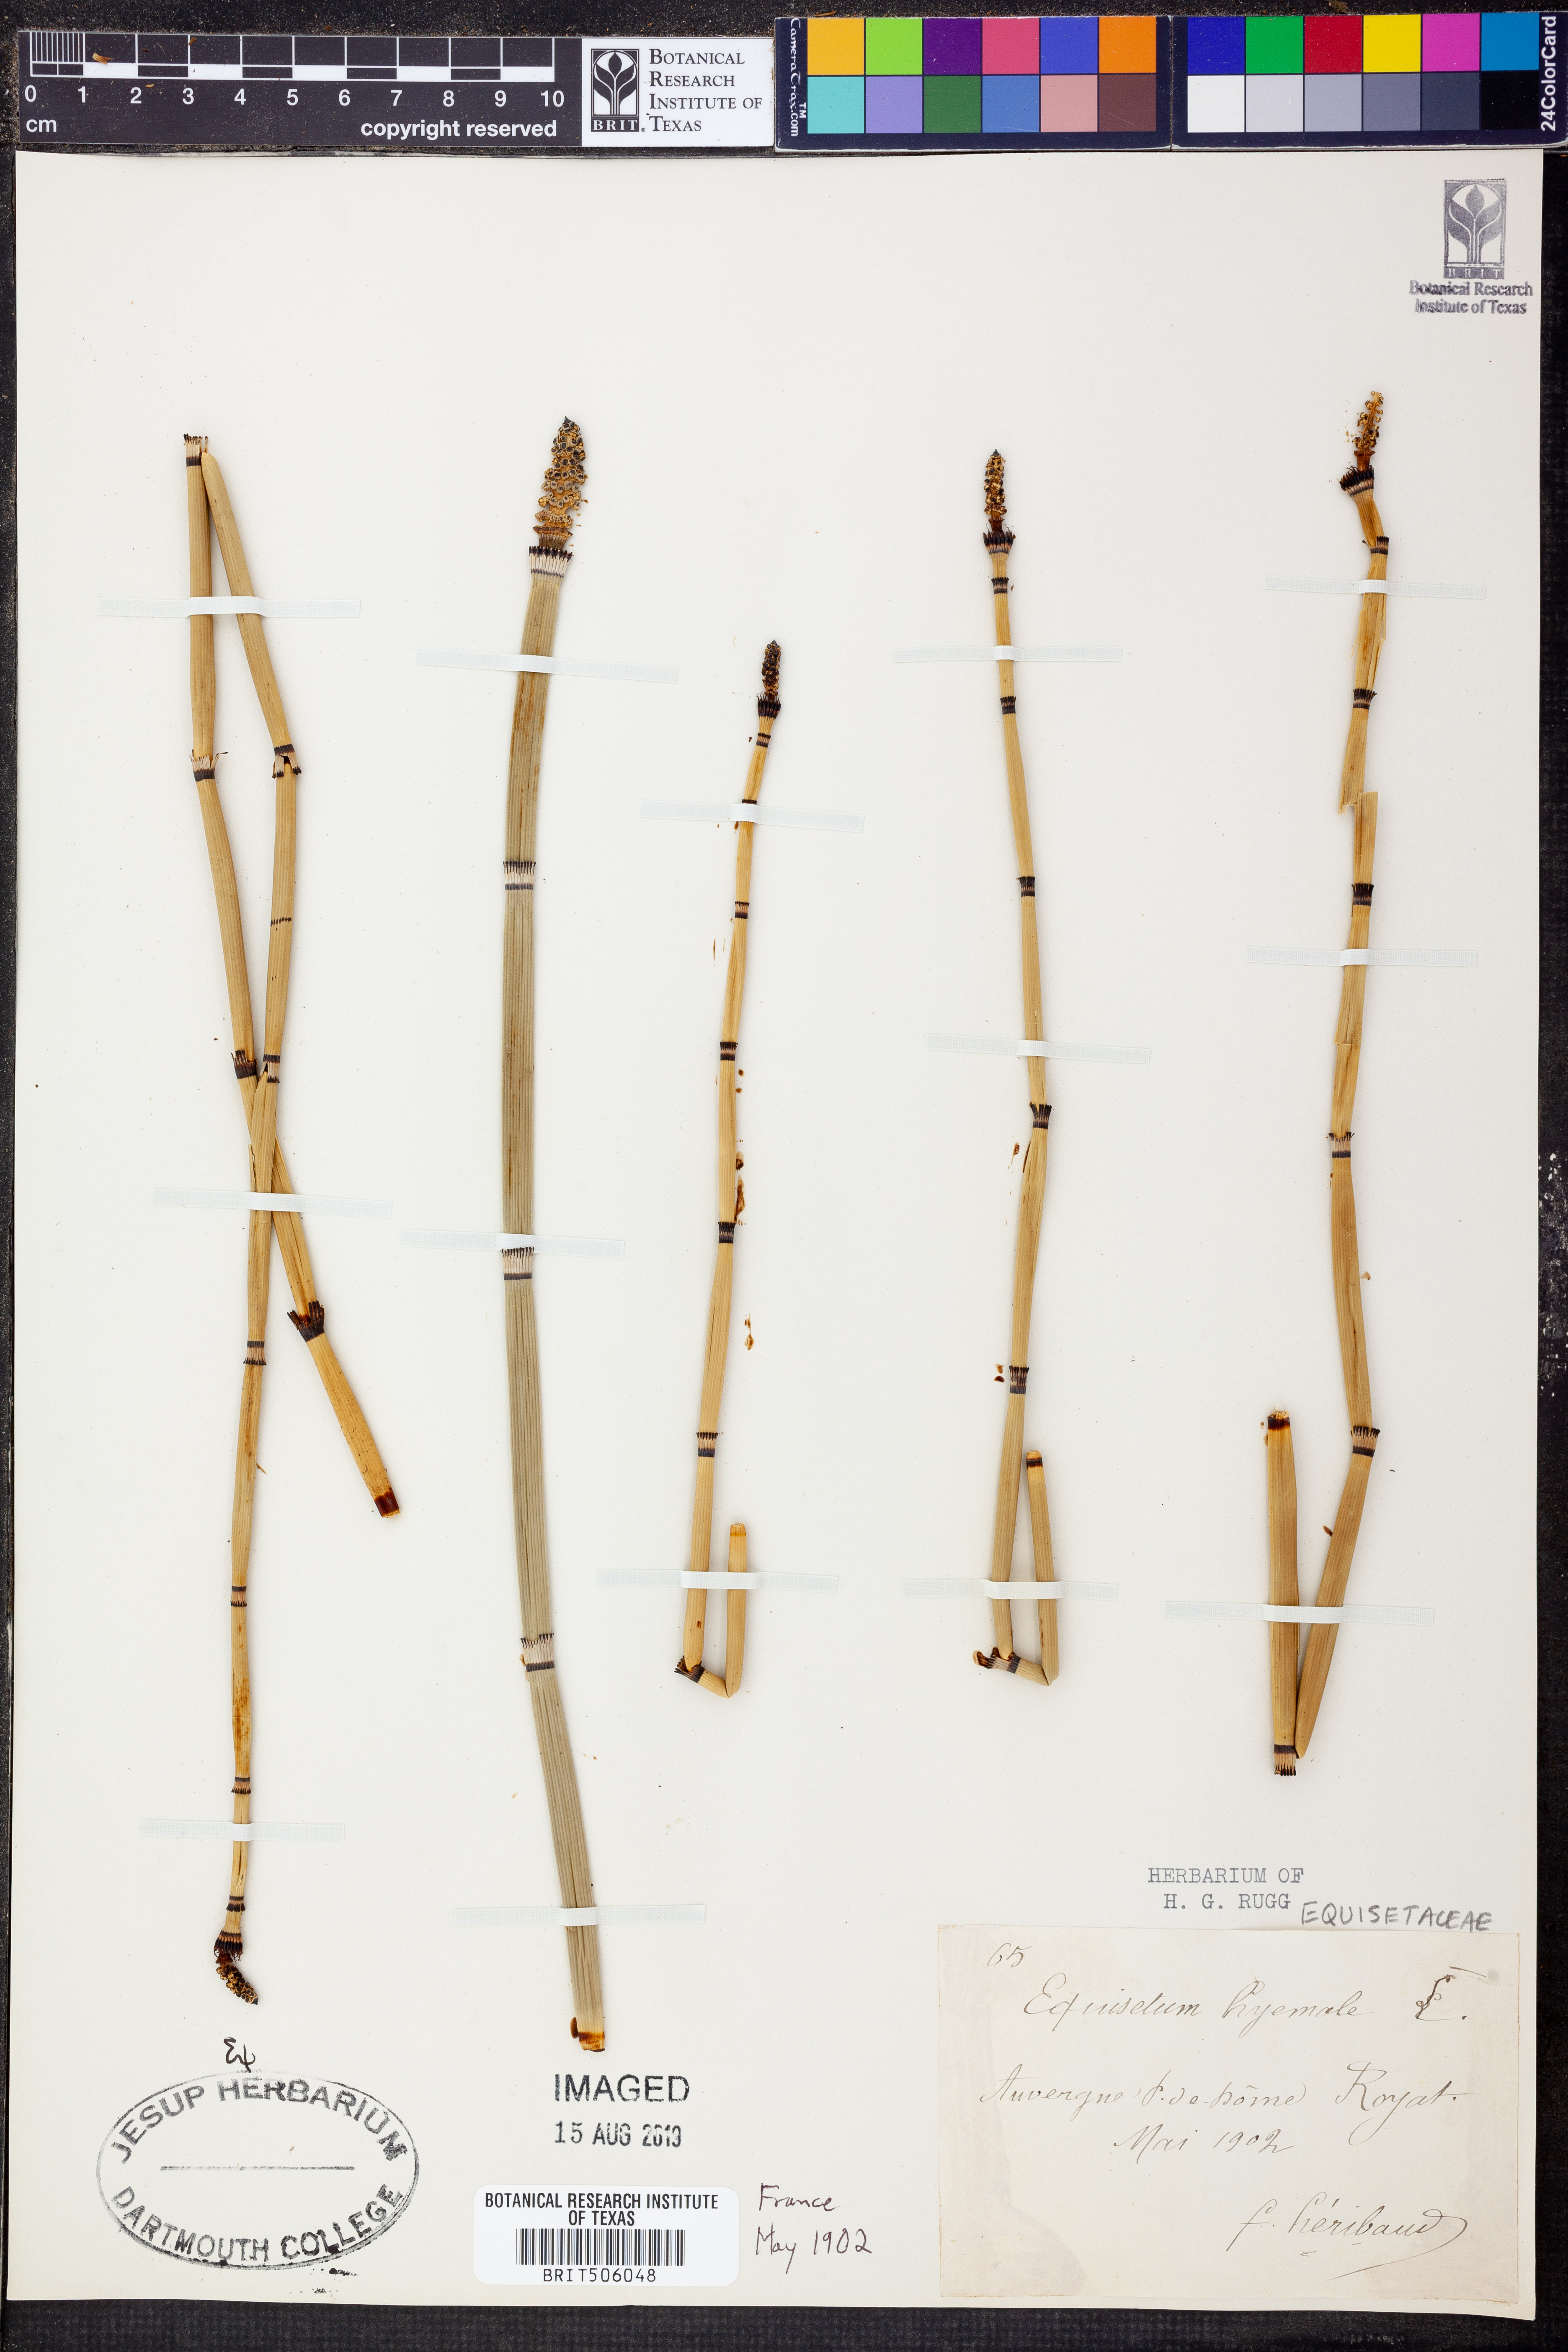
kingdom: Plantae
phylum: Tracheophyta
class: Polypodiopsida
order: Equisetales
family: Equisetaceae
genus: Equisetum
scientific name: Equisetum hyemale
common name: Rough horsetail
